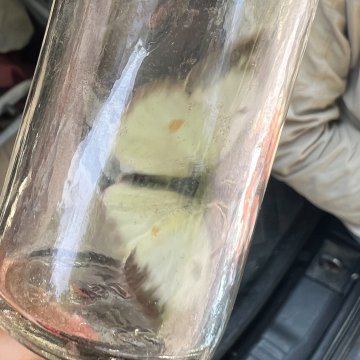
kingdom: Animalia
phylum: Arthropoda
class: Insecta
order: Lepidoptera
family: Pieridae
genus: Colias
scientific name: Colias philodice
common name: Clouded Sulphur
